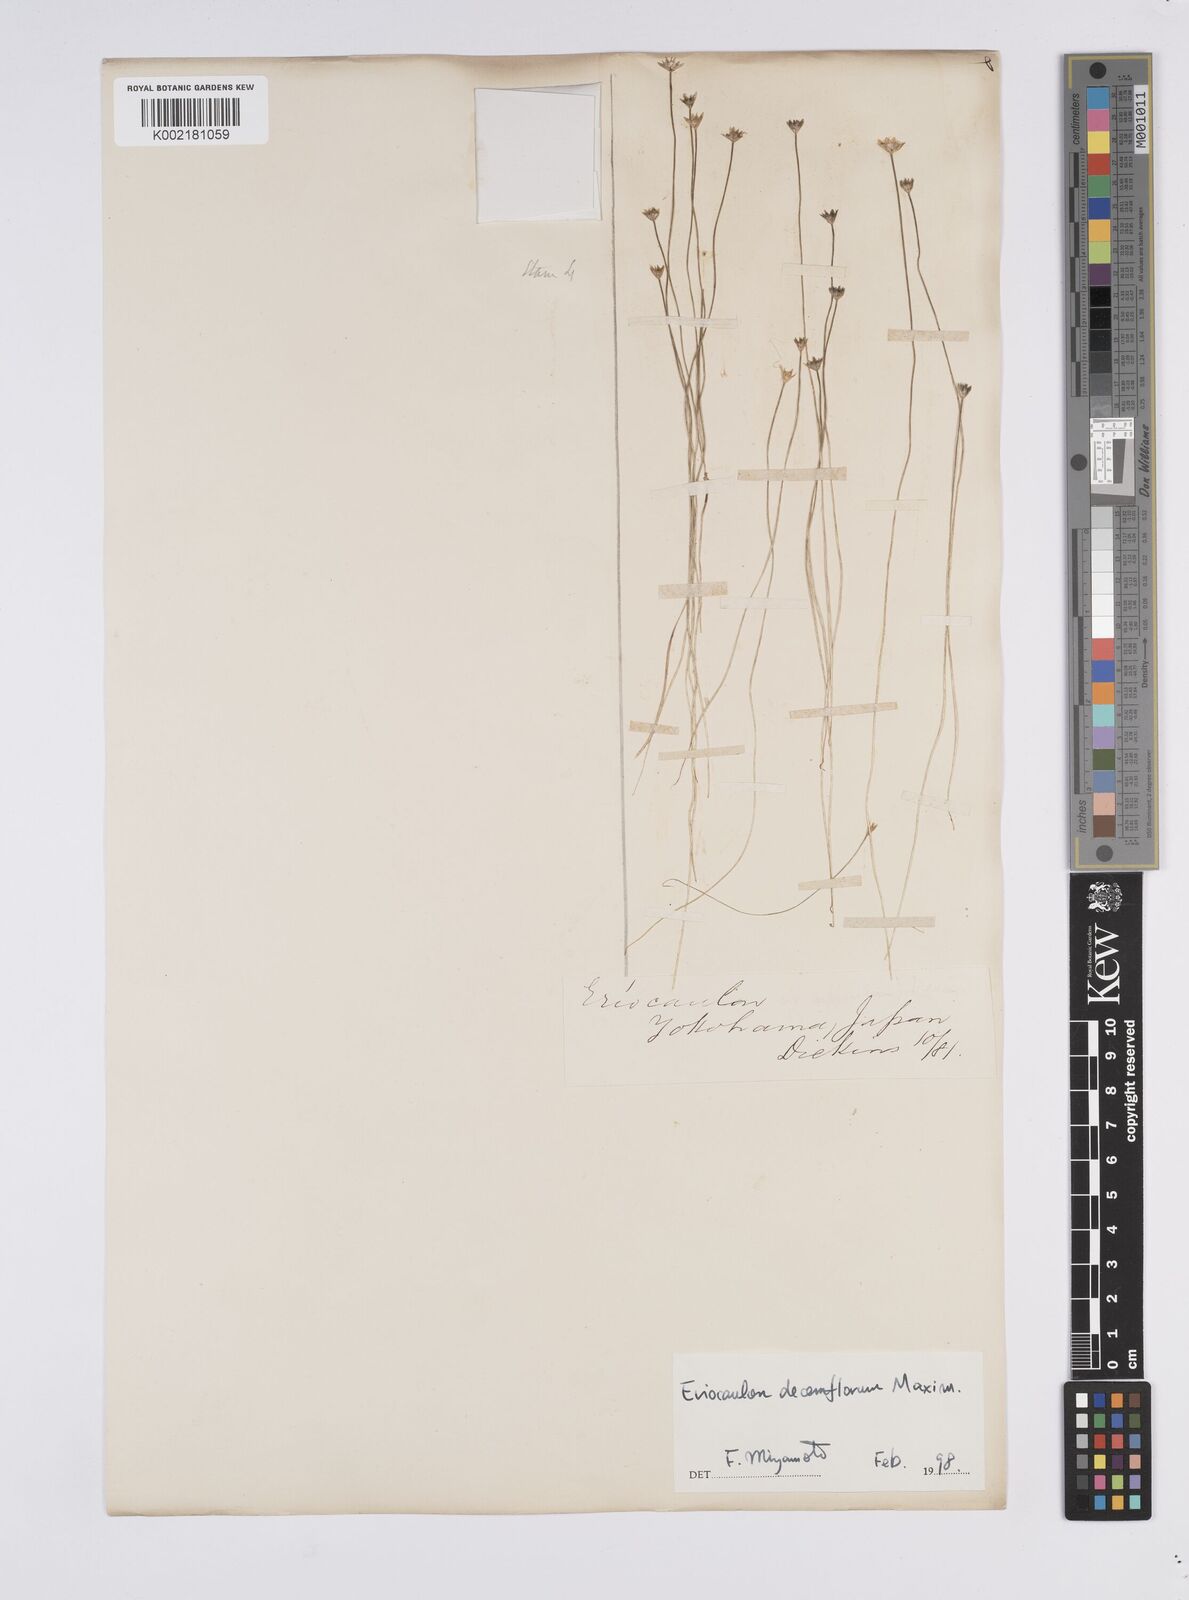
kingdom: Plantae
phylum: Tracheophyta
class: Liliopsida
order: Poales
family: Eriocaulaceae
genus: Eriocaulon
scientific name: Eriocaulon sexangulare
